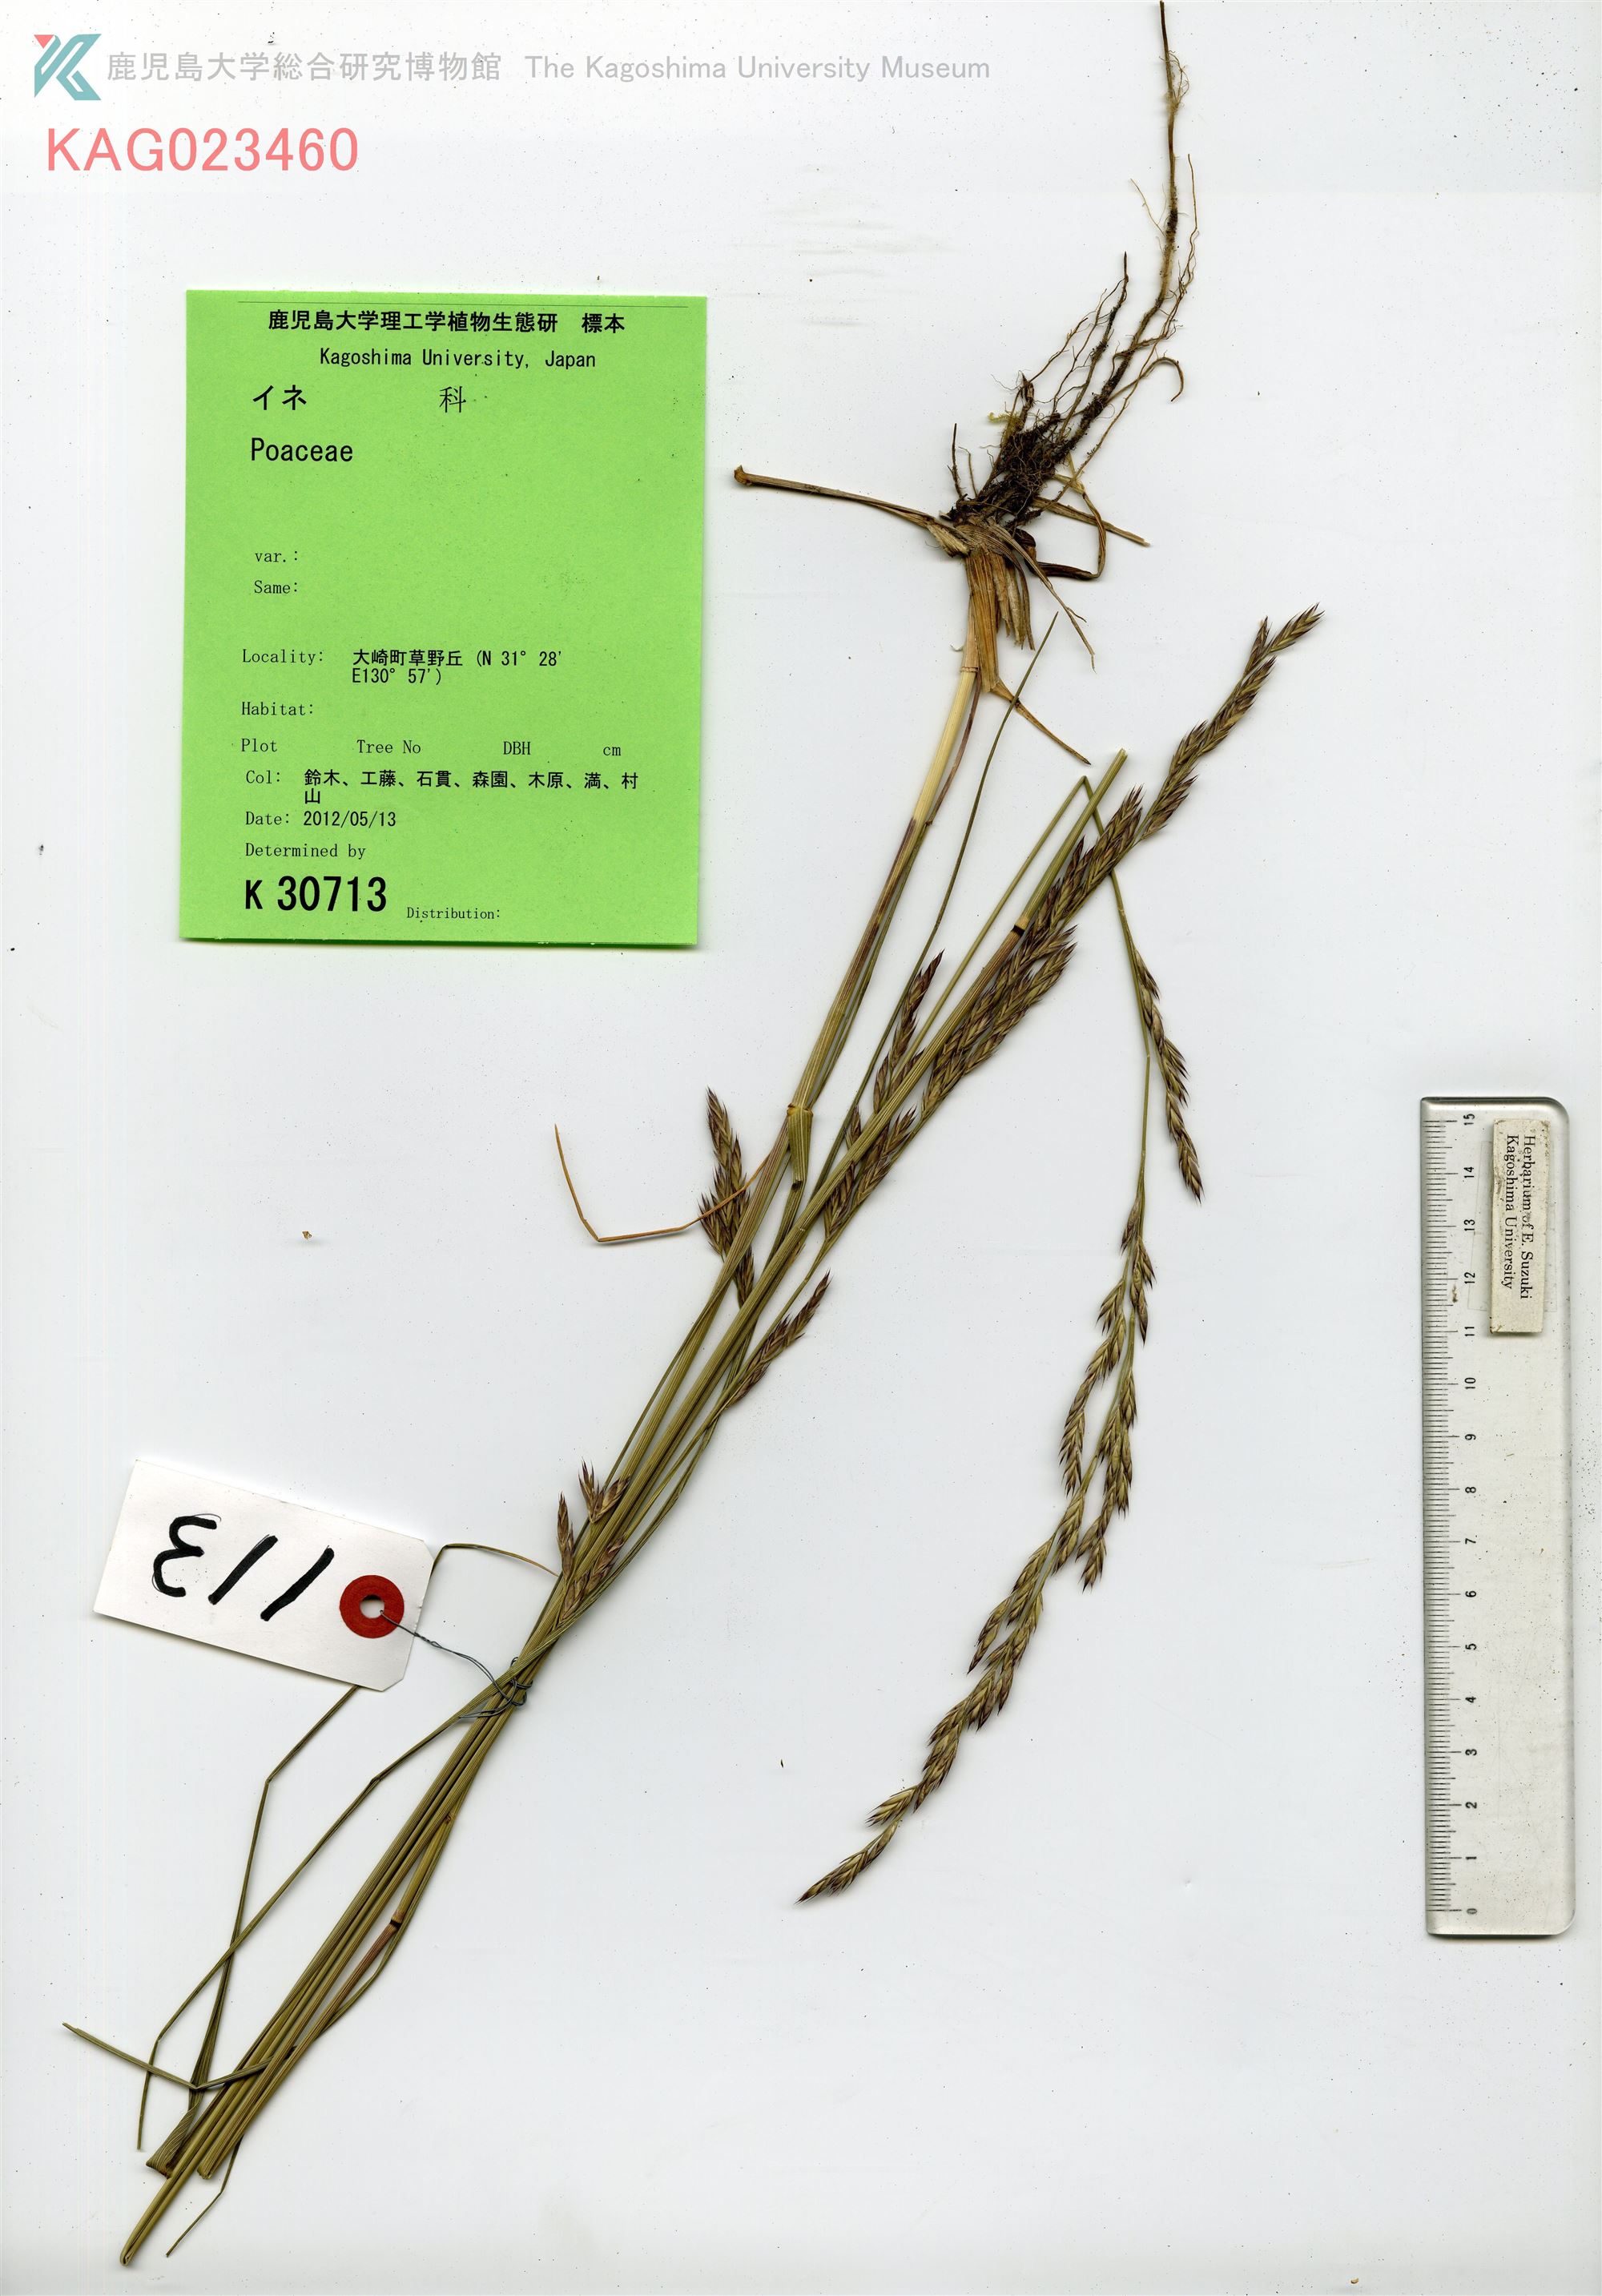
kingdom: Plantae
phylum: Tracheophyta
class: Liliopsida
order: Poales
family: Poaceae
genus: Lolium
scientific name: Lolium arundinaceum
